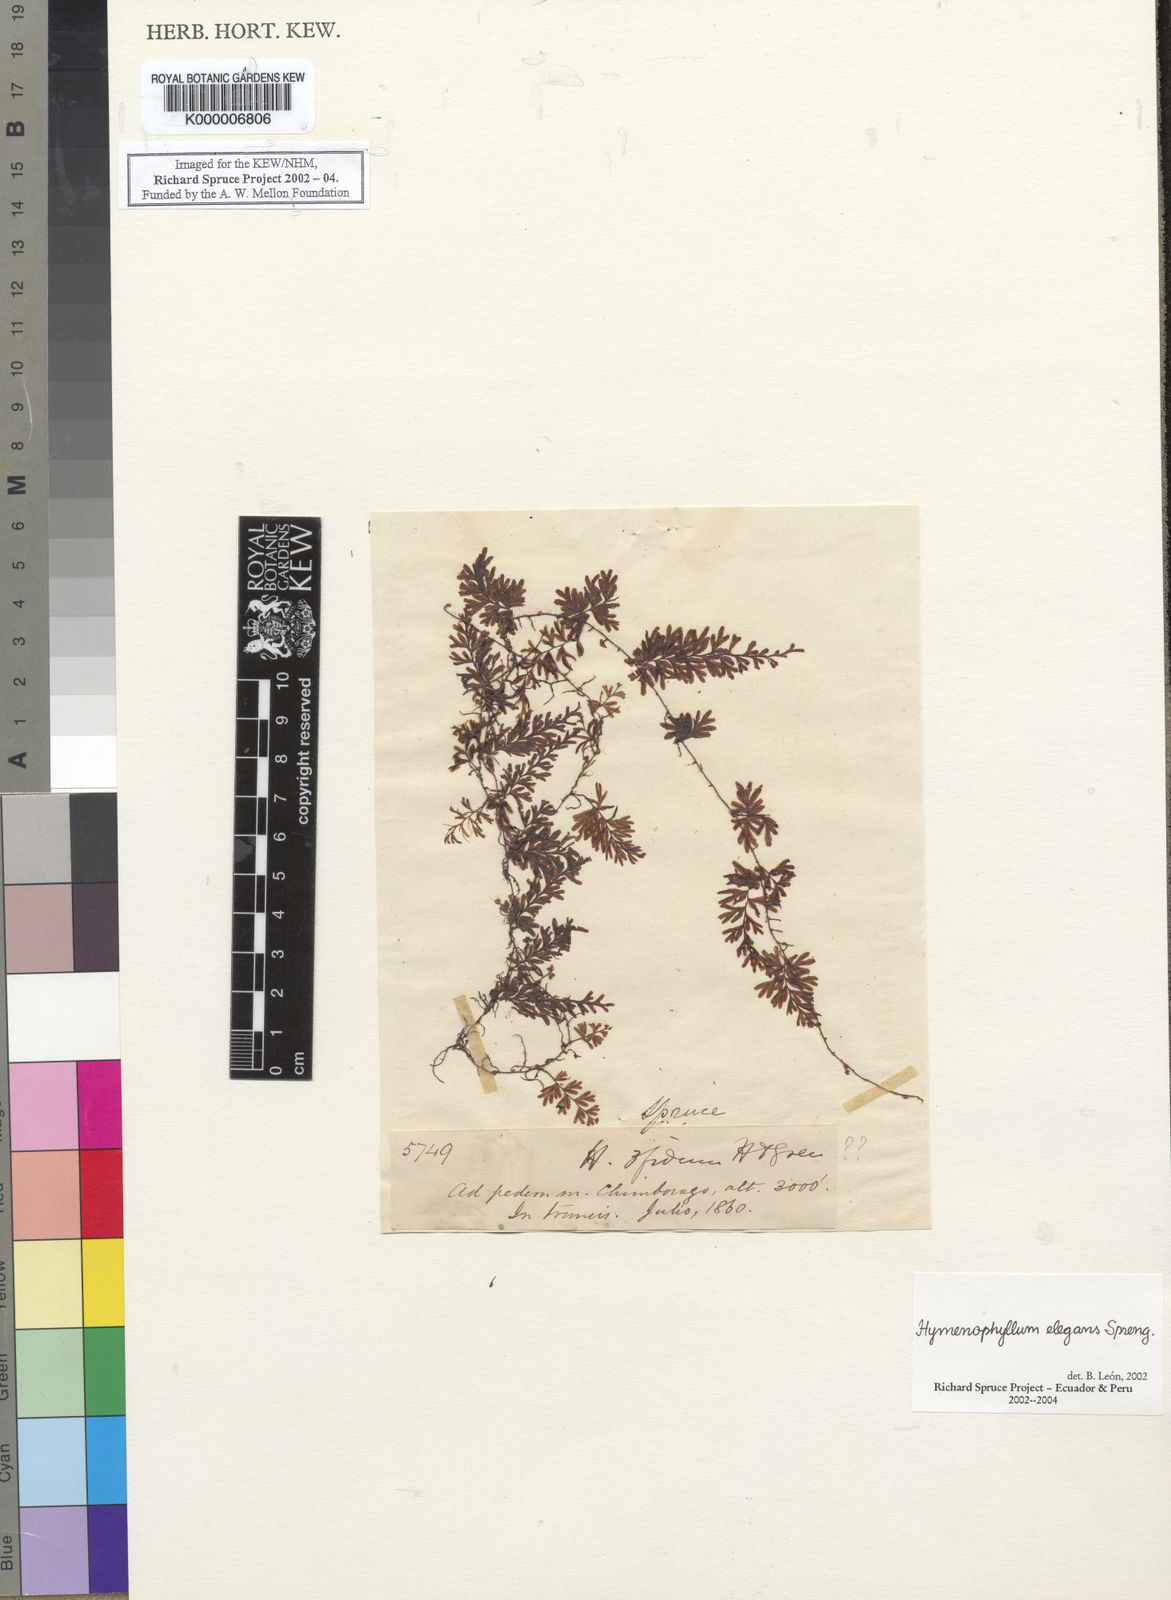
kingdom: Plantae
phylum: Tracheophyta
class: Polypodiopsida
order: Hymenophyllales
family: Hymenophyllaceae
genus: Hymenophyllum
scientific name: Hymenophyllum elegans
